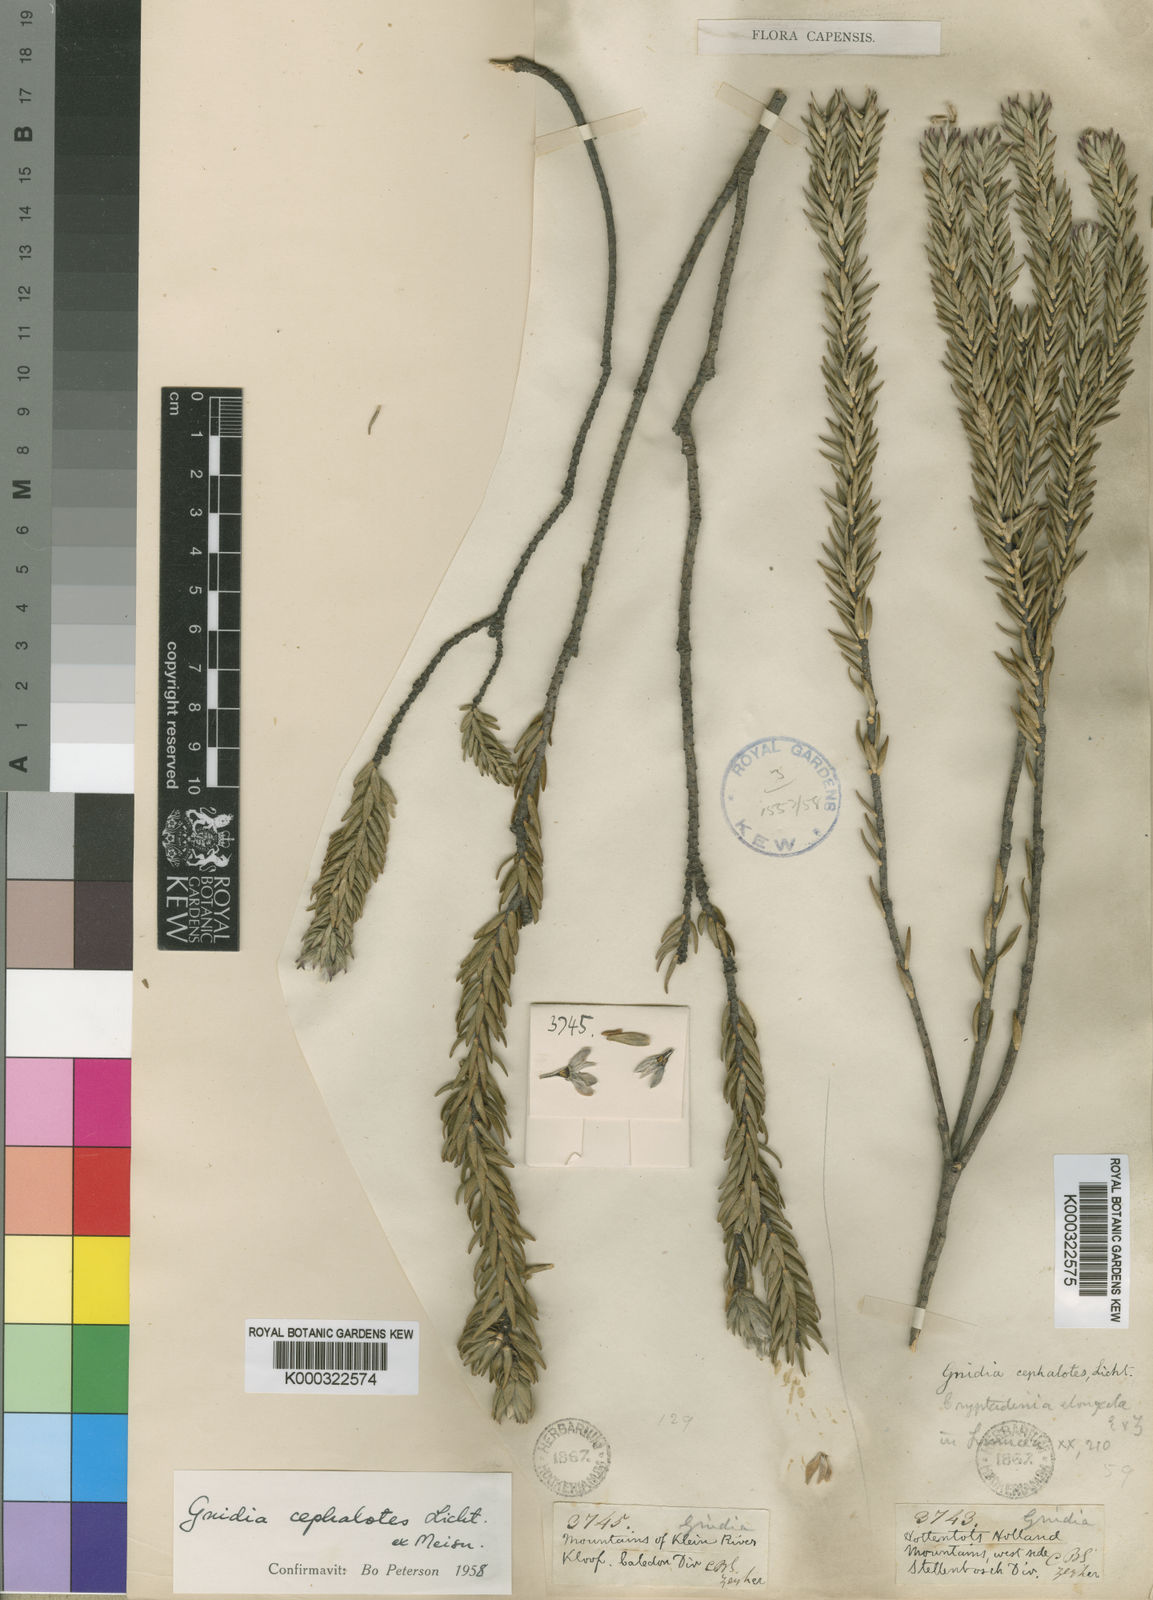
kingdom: Plantae
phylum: Tracheophyta
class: Magnoliopsida
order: Malvales
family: Thymelaeaceae
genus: Lachnaea
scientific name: Lachnaea grandiflora
